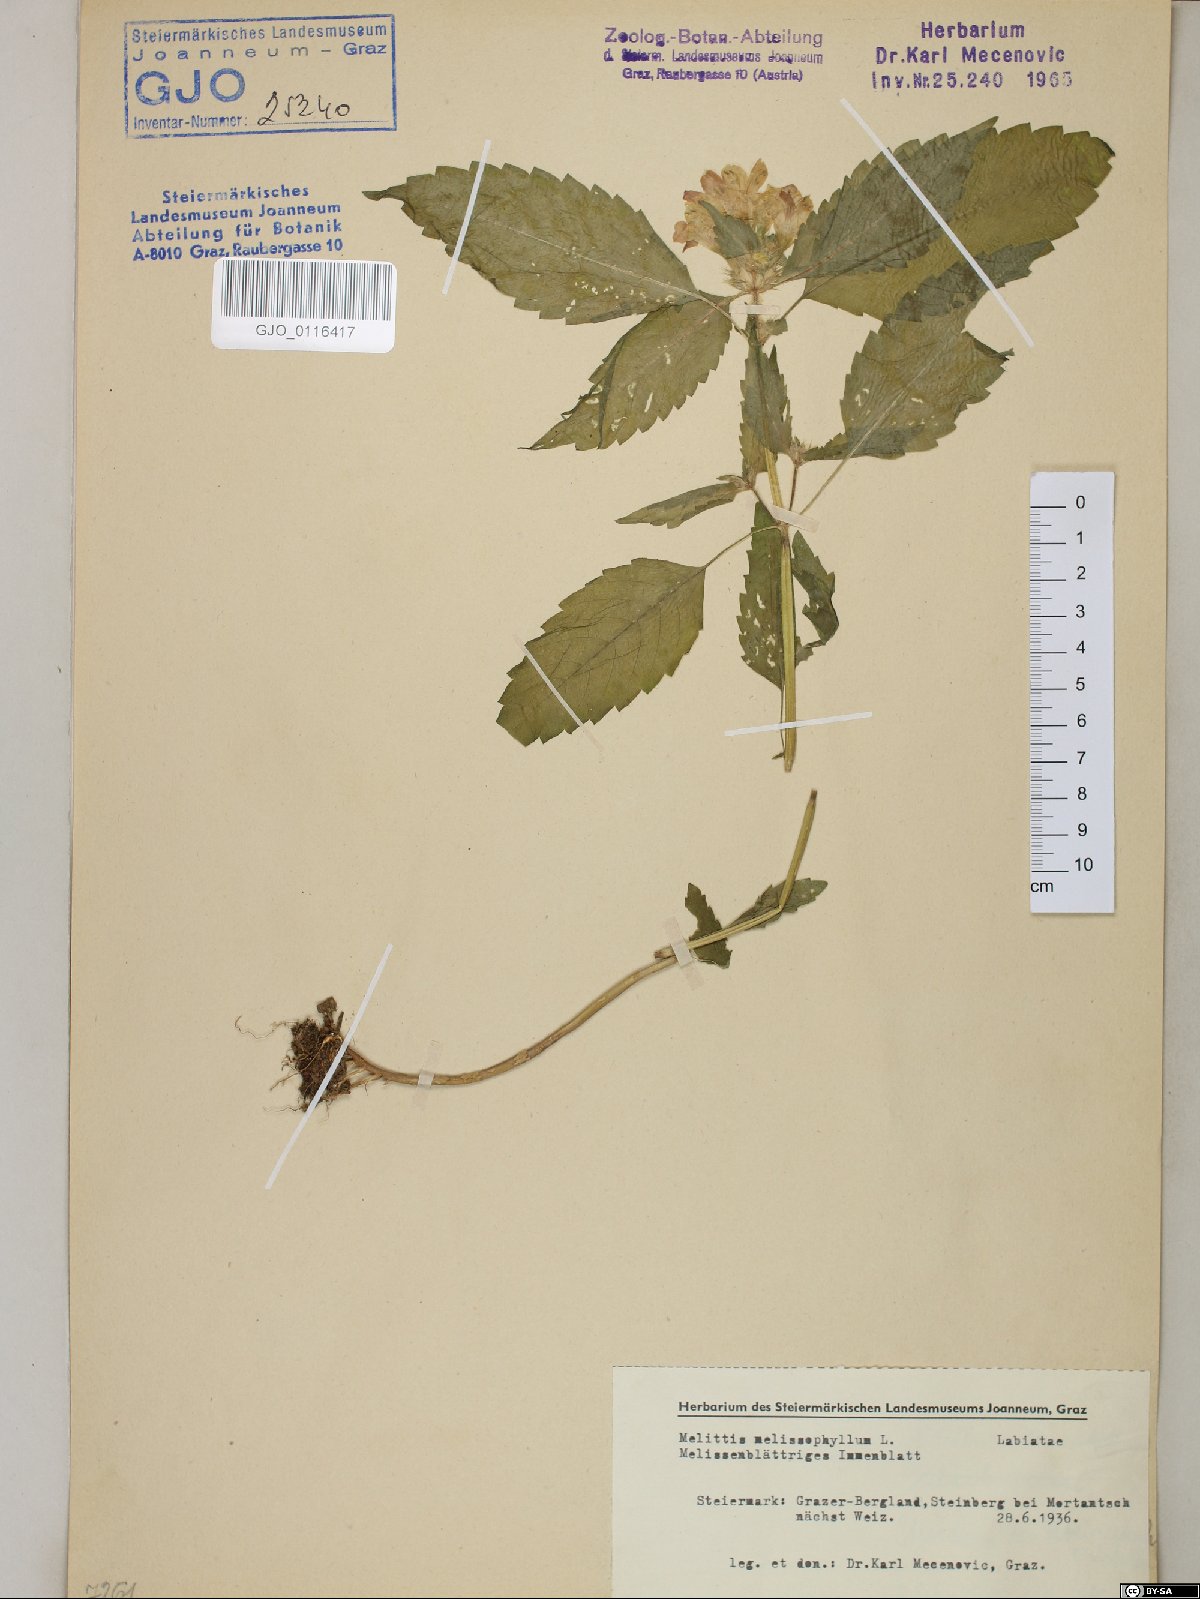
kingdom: Plantae
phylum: Tracheophyta
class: Magnoliopsida
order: Lamiales
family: Lamiaceae
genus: Melittis
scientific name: Melittis melissophyllum
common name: Bastard balm
